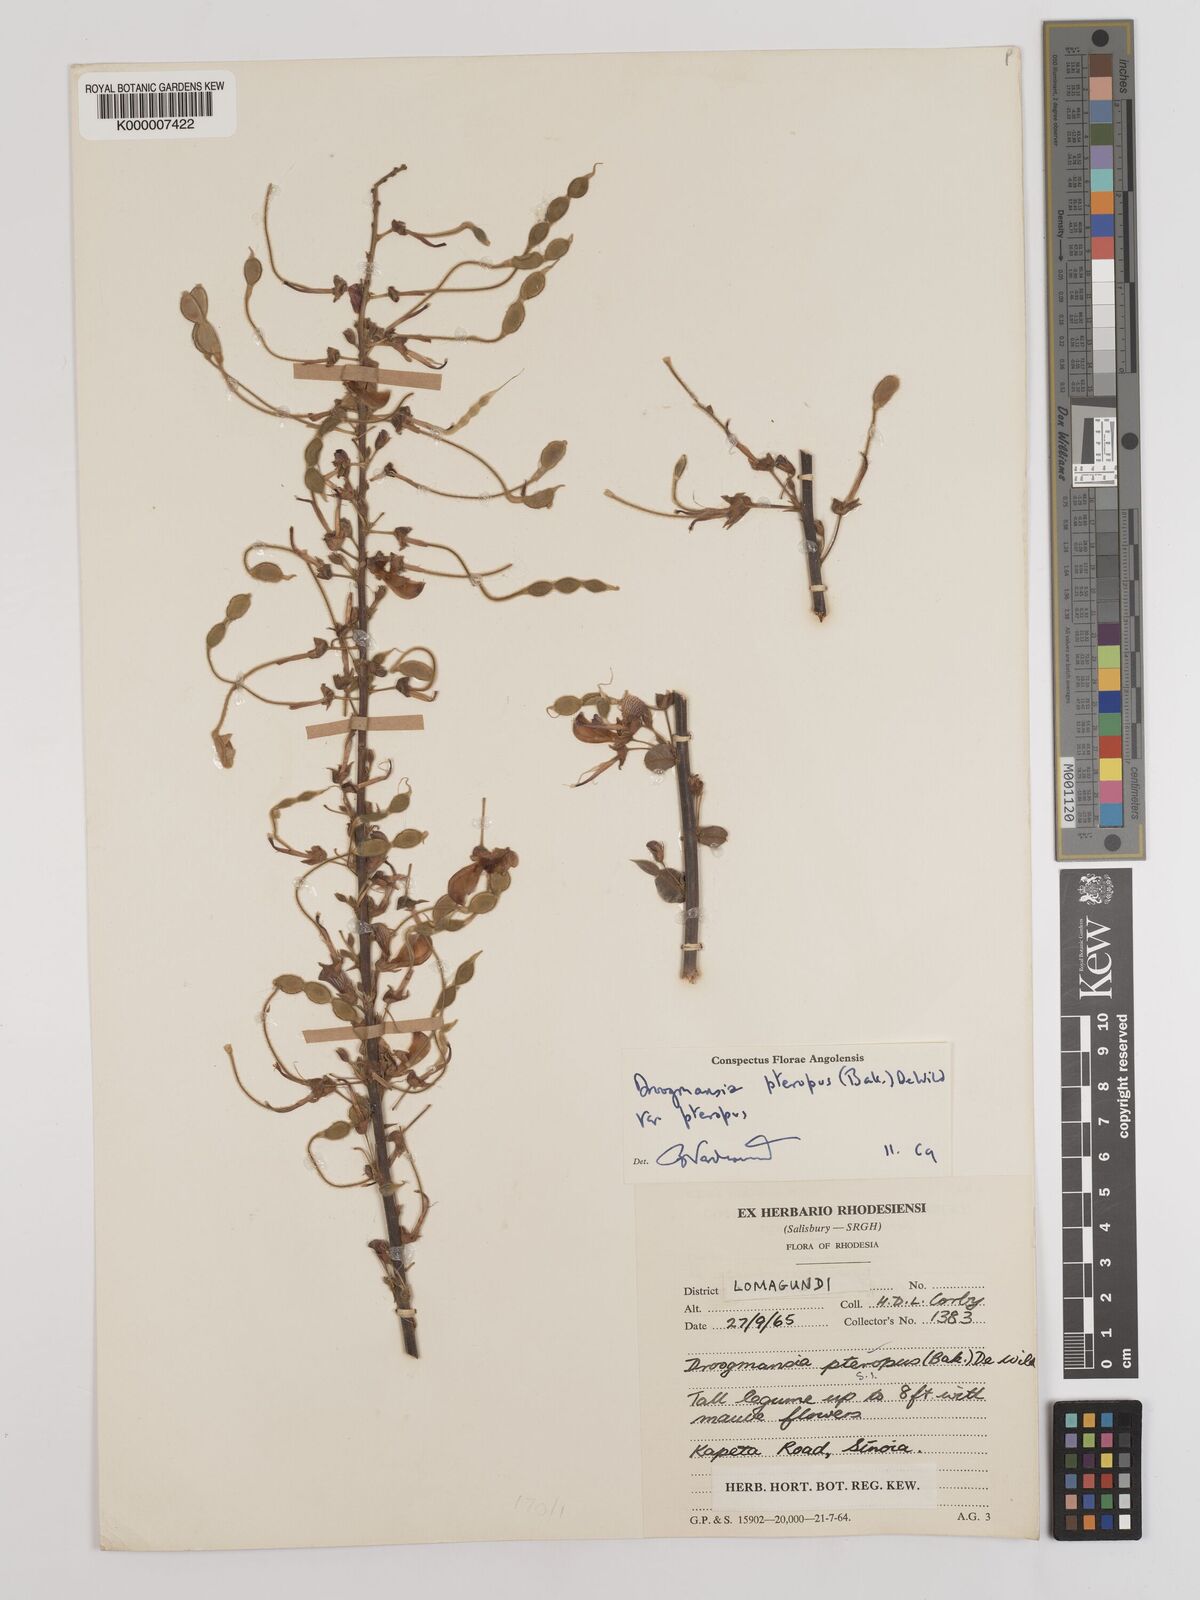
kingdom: Plantae
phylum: Tracheophyta
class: Magnoliopsida
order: Fabales
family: Fabaceae
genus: Droogmansia
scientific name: Droogmansia pteropus
